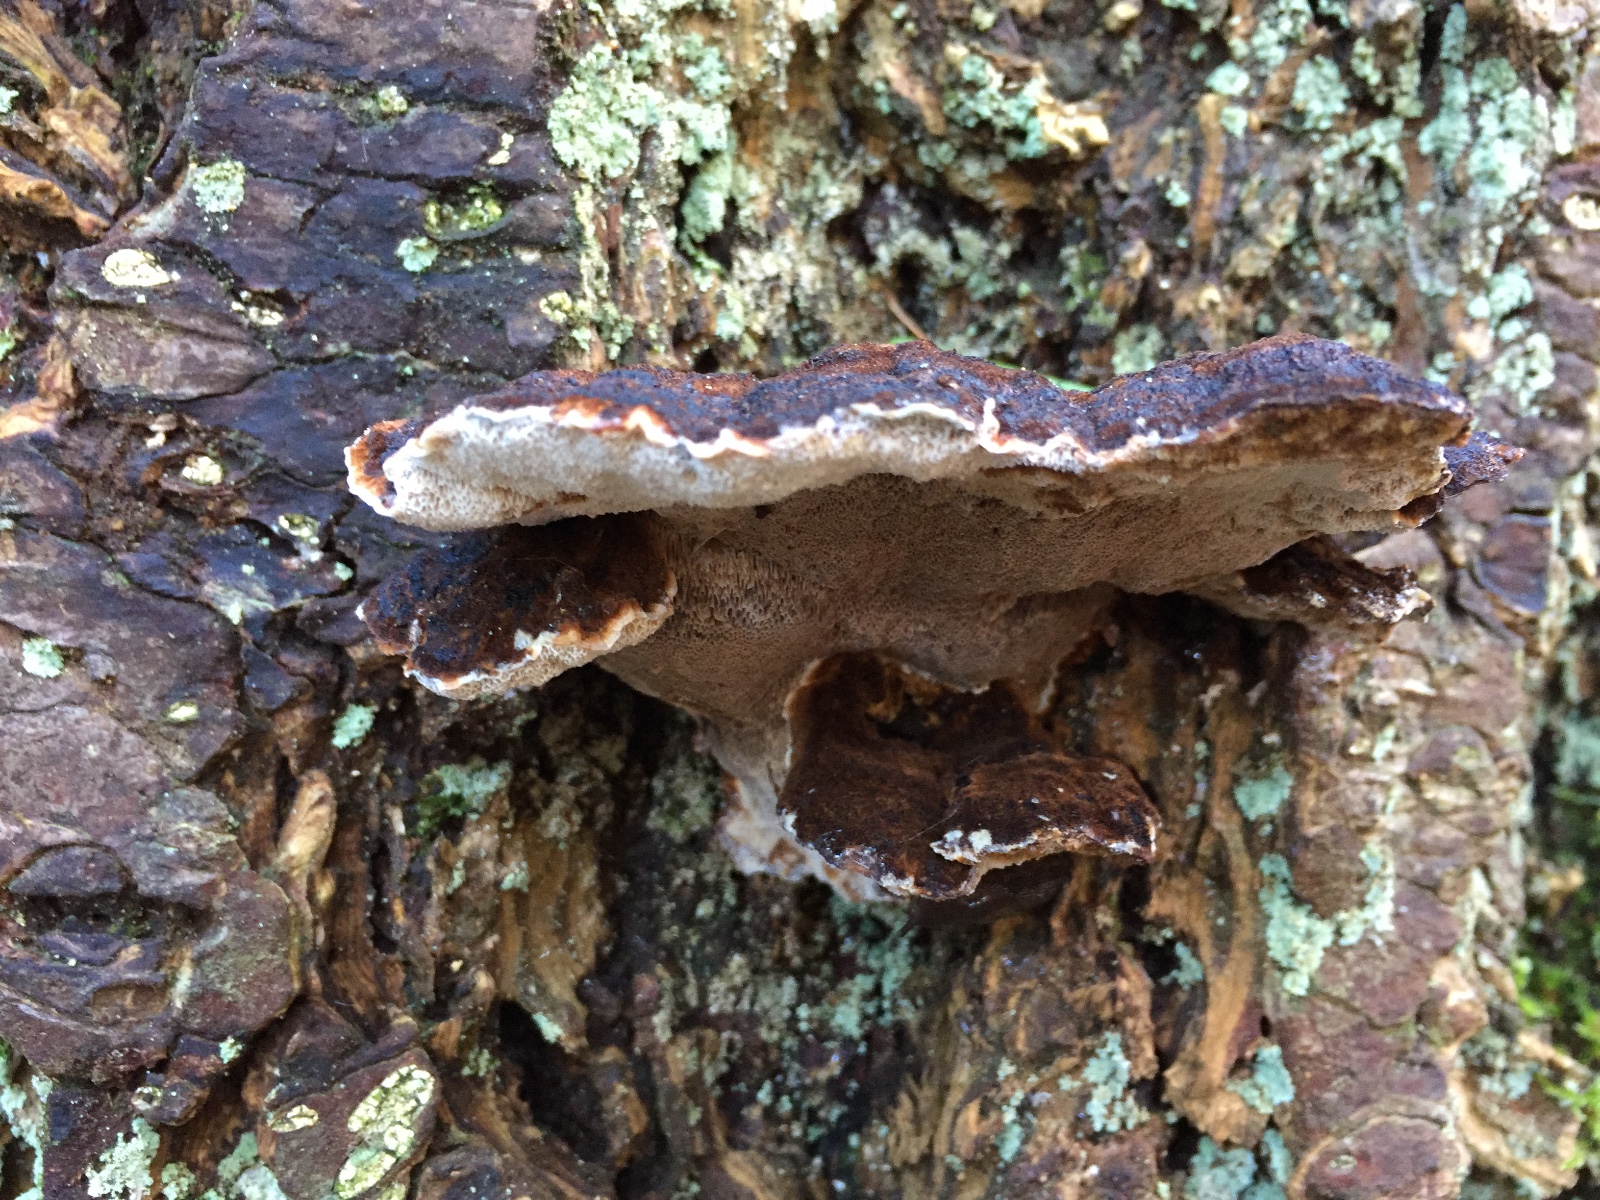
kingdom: Fungi
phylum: Basidiomycota
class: Agaricomycetes
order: Polyporales
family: Ischnodermataceae
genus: Ischnoderma
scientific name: Ischnoderma benzoinum
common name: gran-tjæreporesvamp
